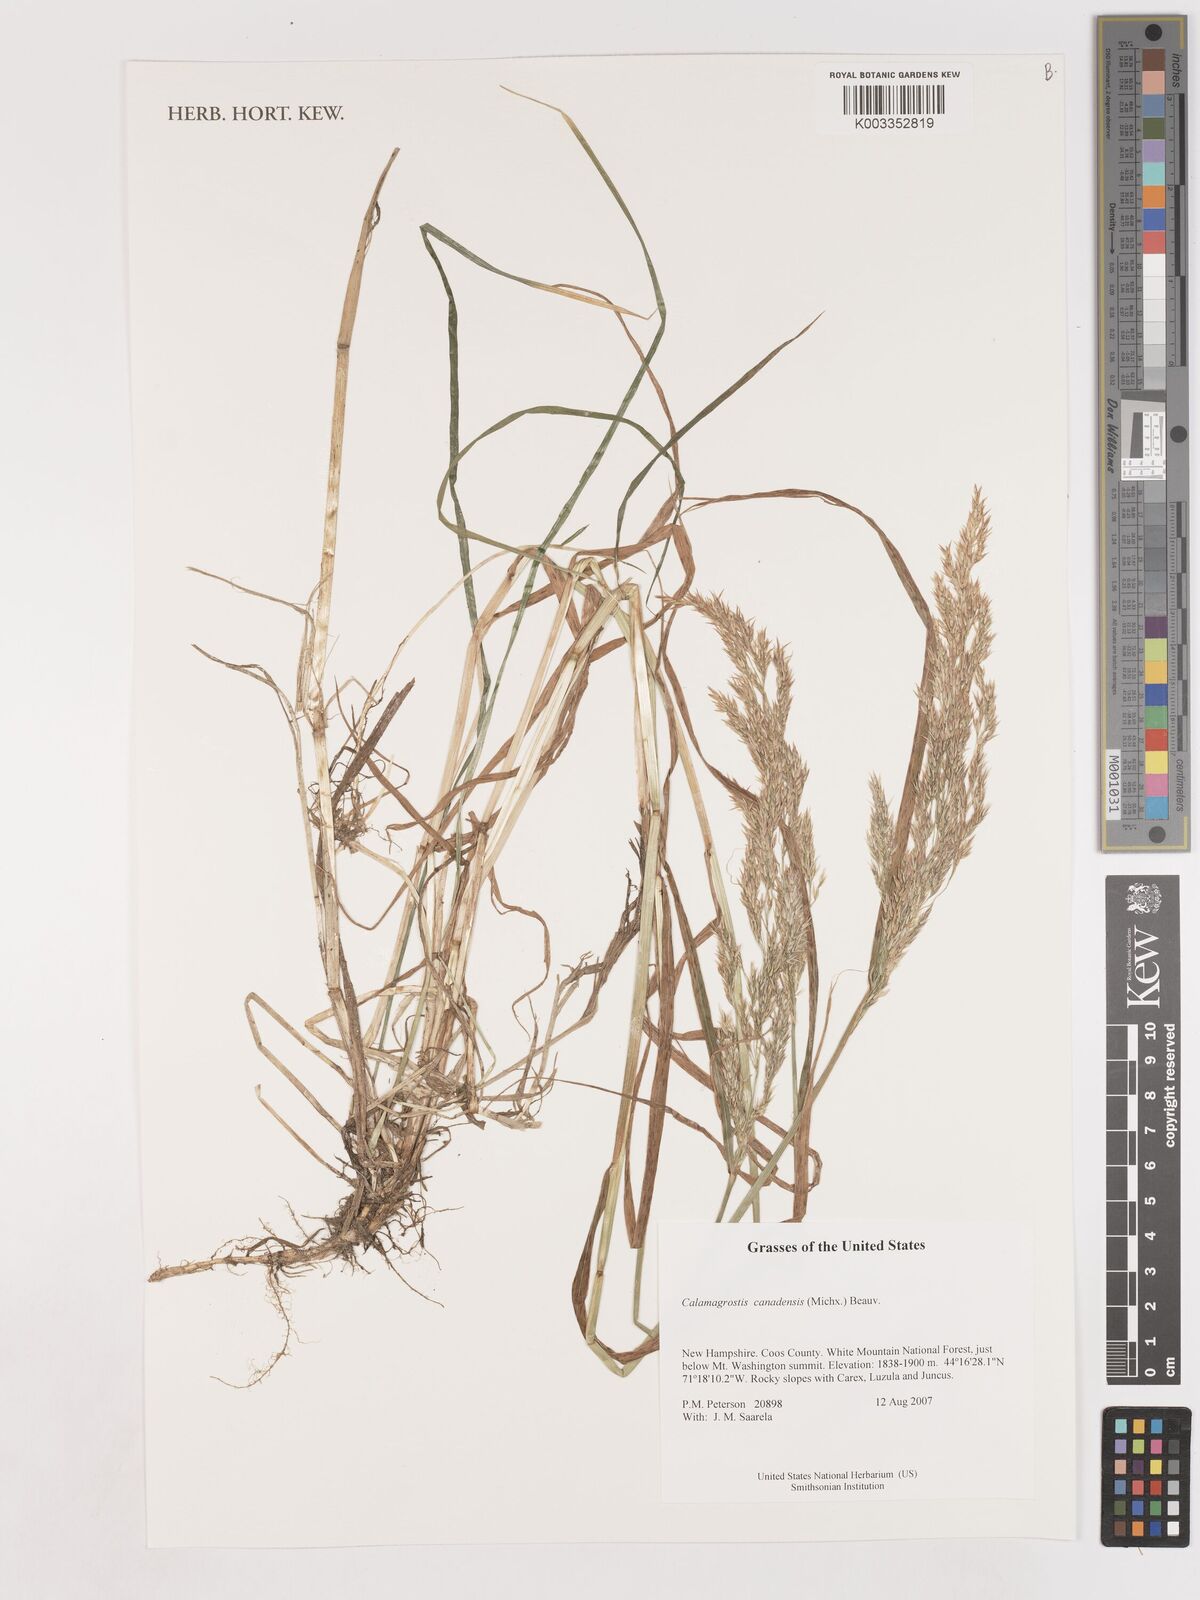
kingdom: Plantae
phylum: Tracheophyta
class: Liliopsida
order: Poales
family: Poaceae
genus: Calamagrostis
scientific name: Calamagrostis canadensis
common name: Canada bluejoint
